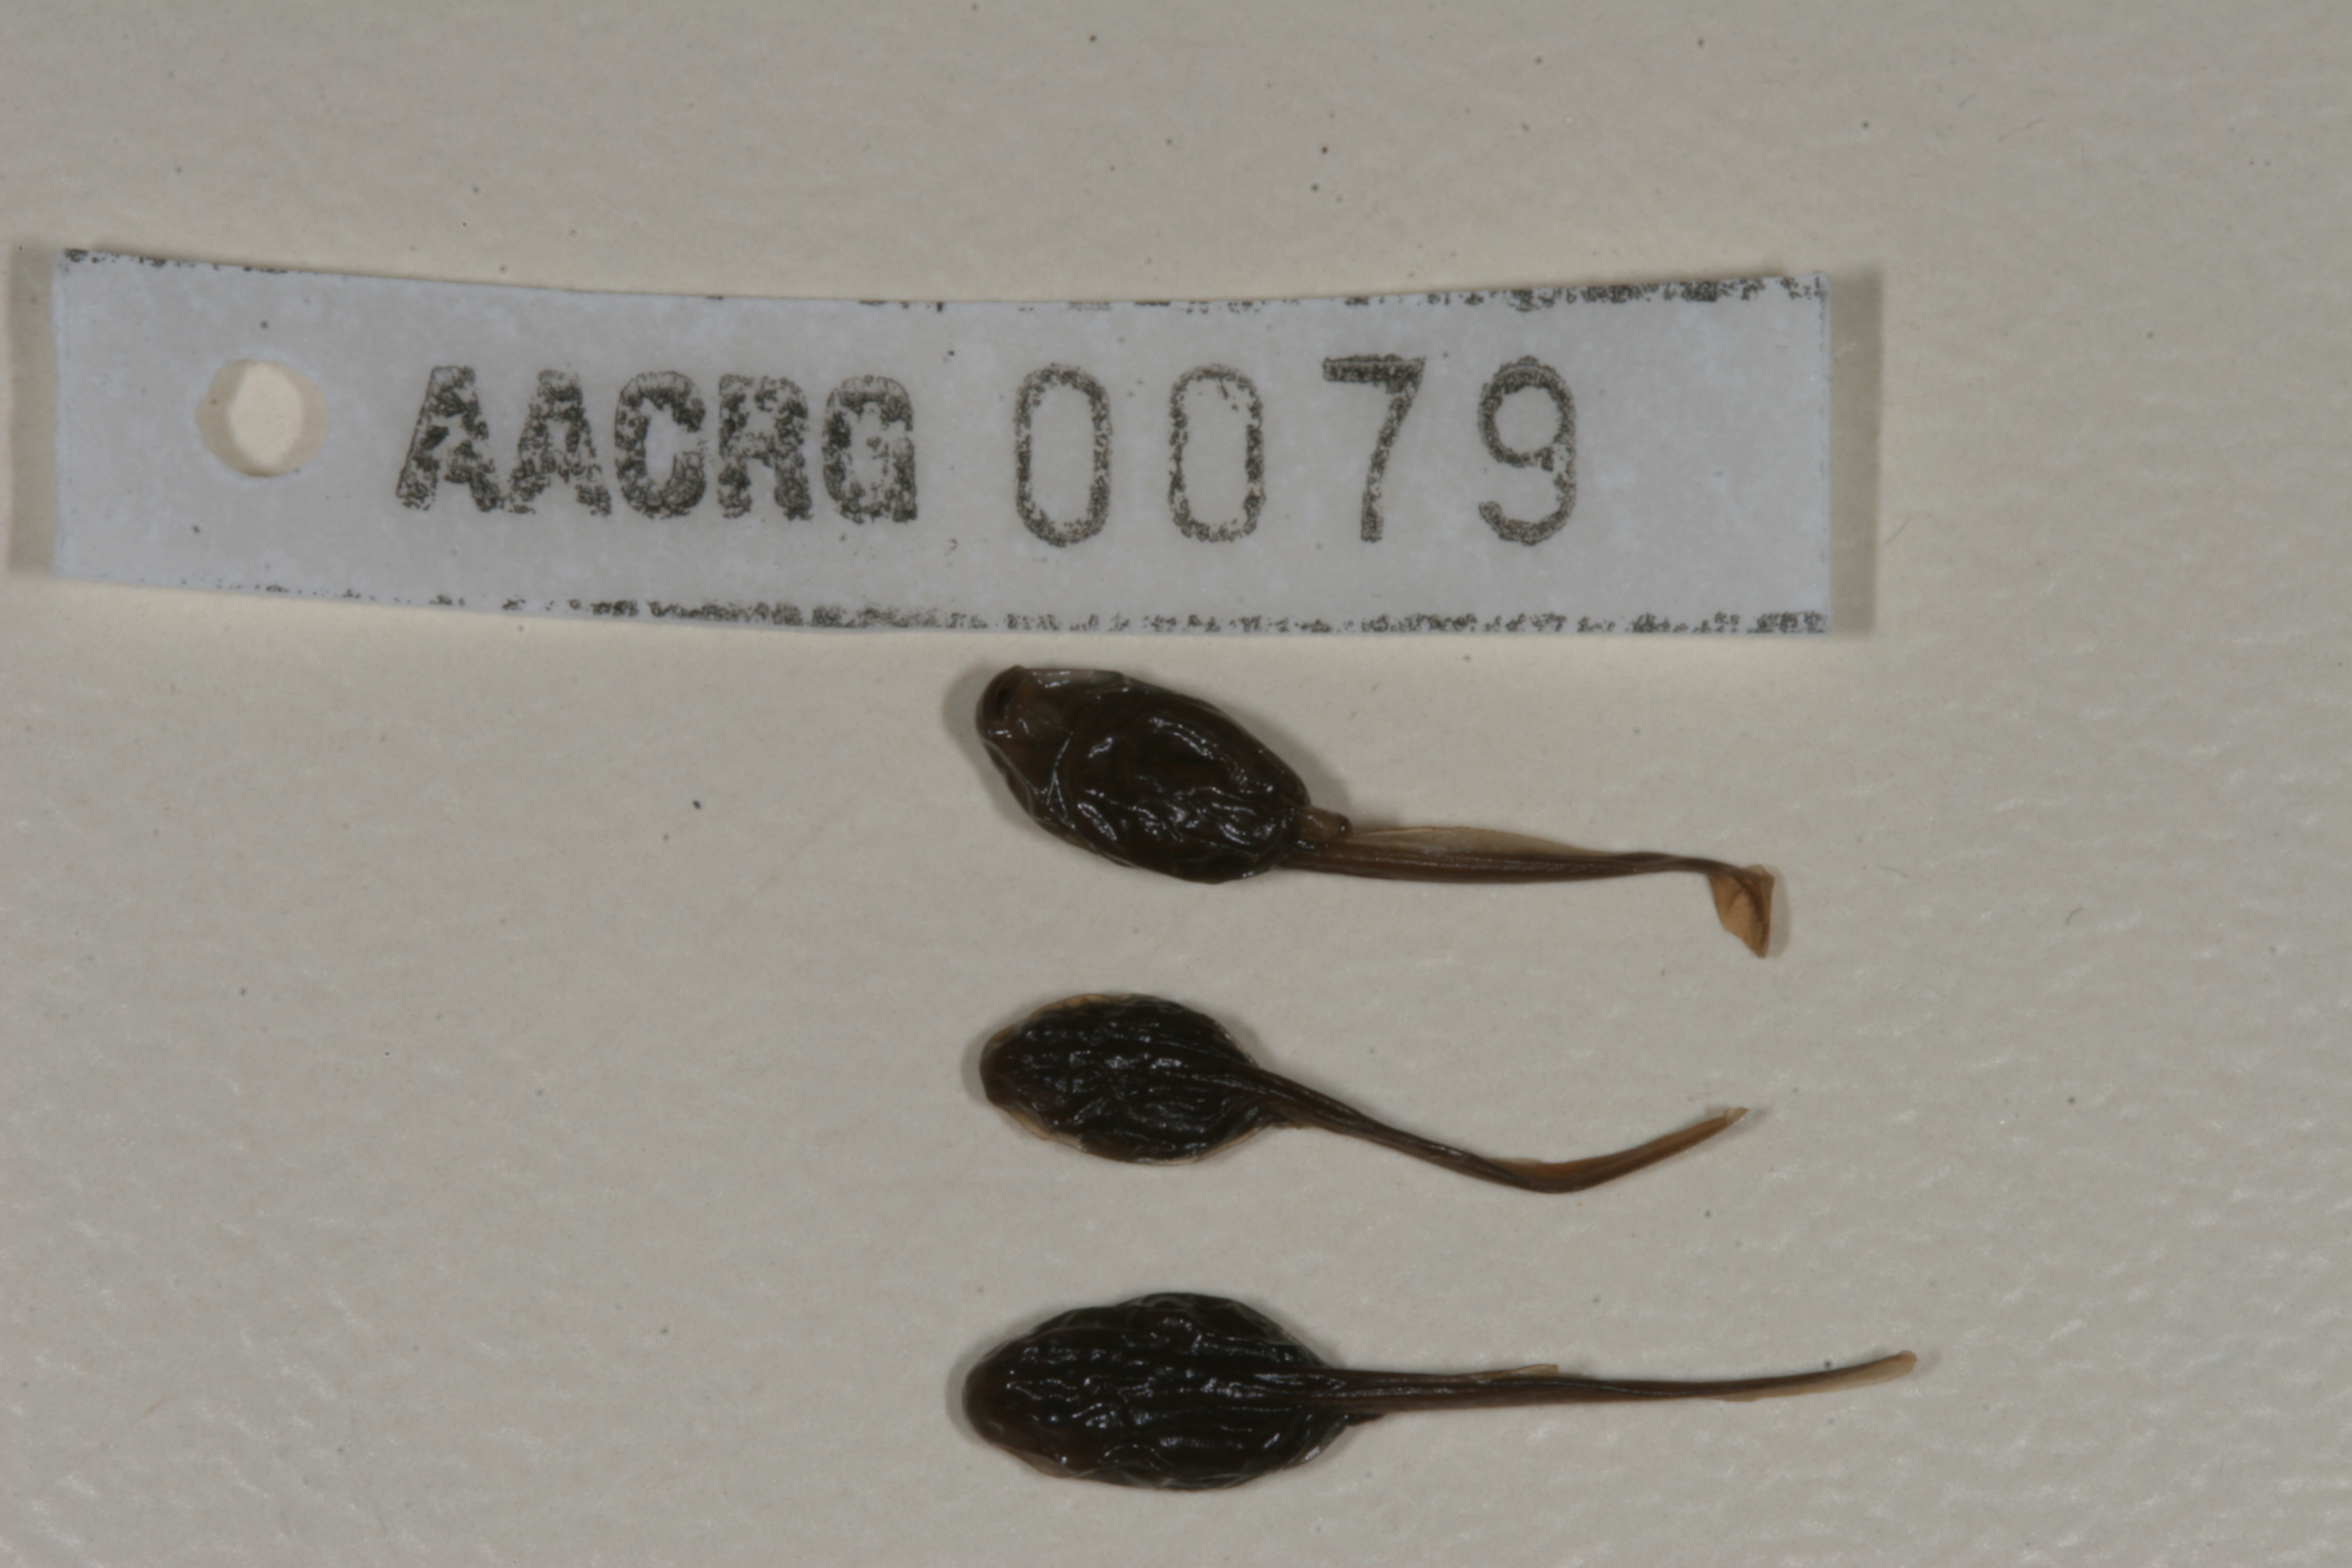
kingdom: Animalia
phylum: Chordata
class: Amphibia
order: Anura
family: Bufonidae
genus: Vandijkophrynus
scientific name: Vandijkophrynus gariepensis
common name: Gariep toad
